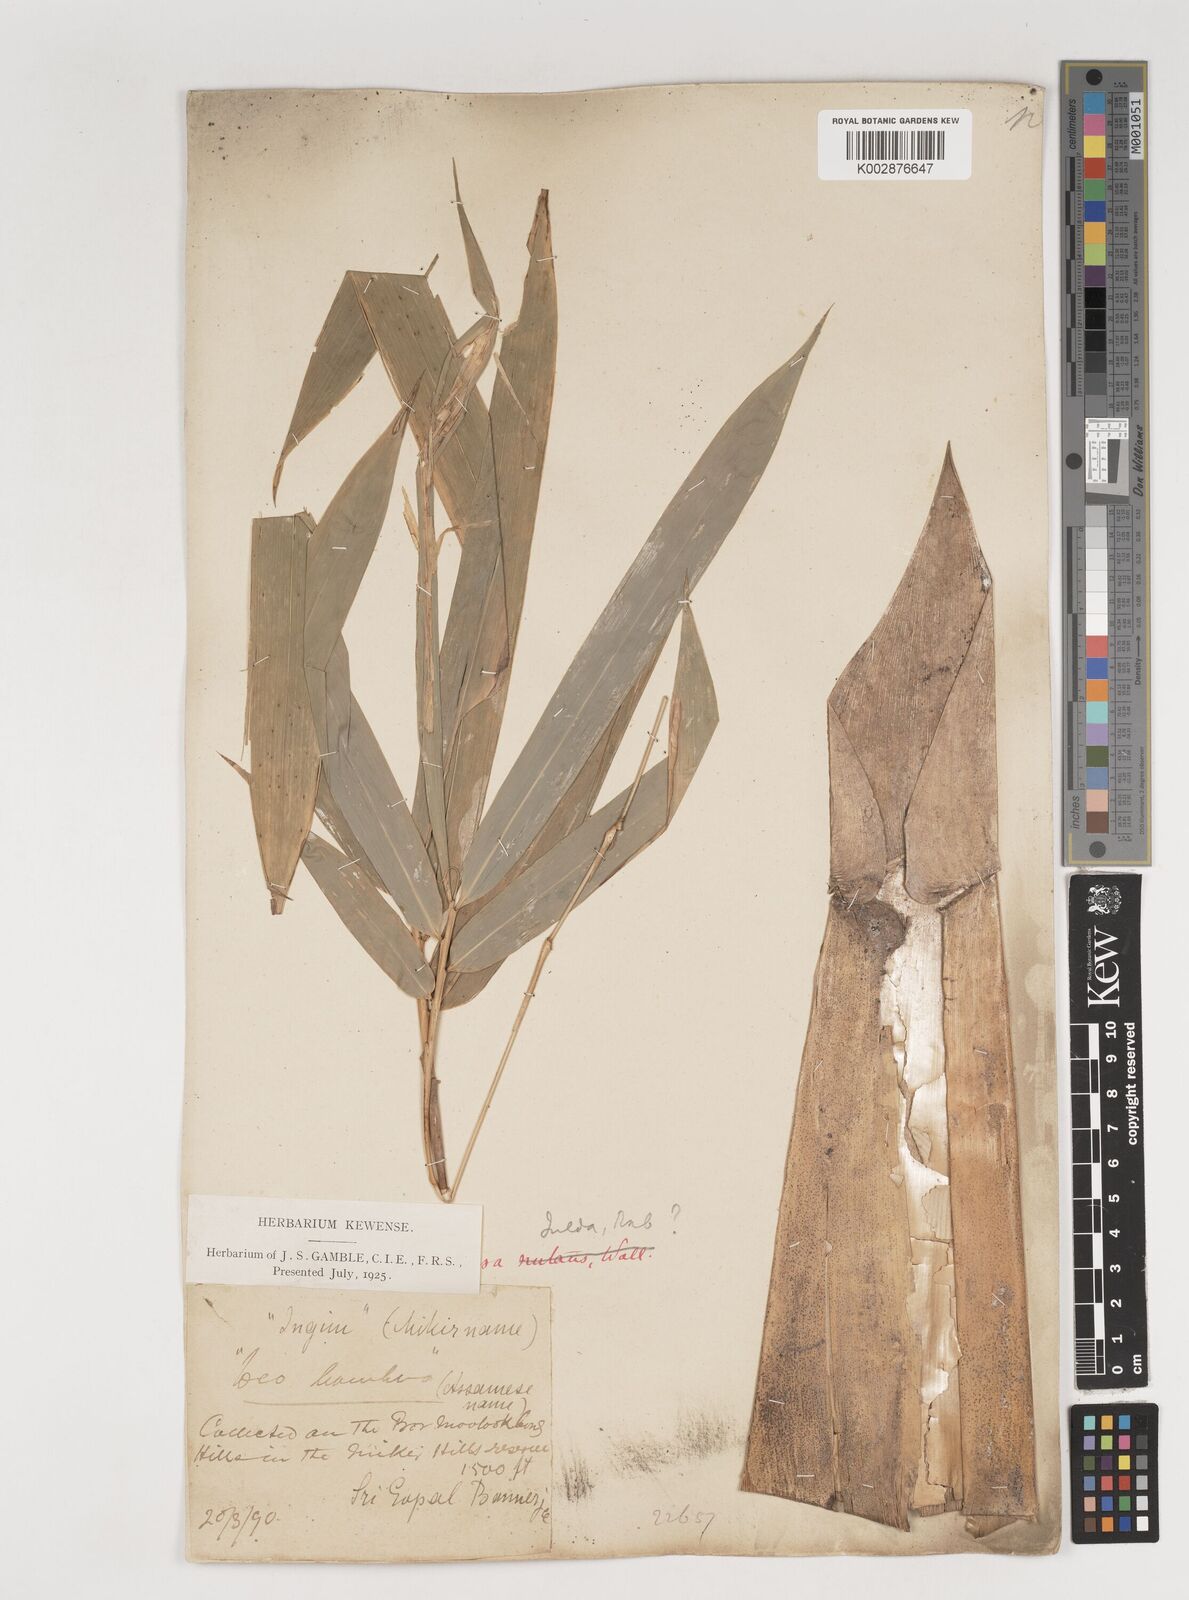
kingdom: Plantae
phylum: Tracheophyta
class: Liliopsida
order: Poales
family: Poaceae
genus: Bambusa
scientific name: Bambusa nutans
